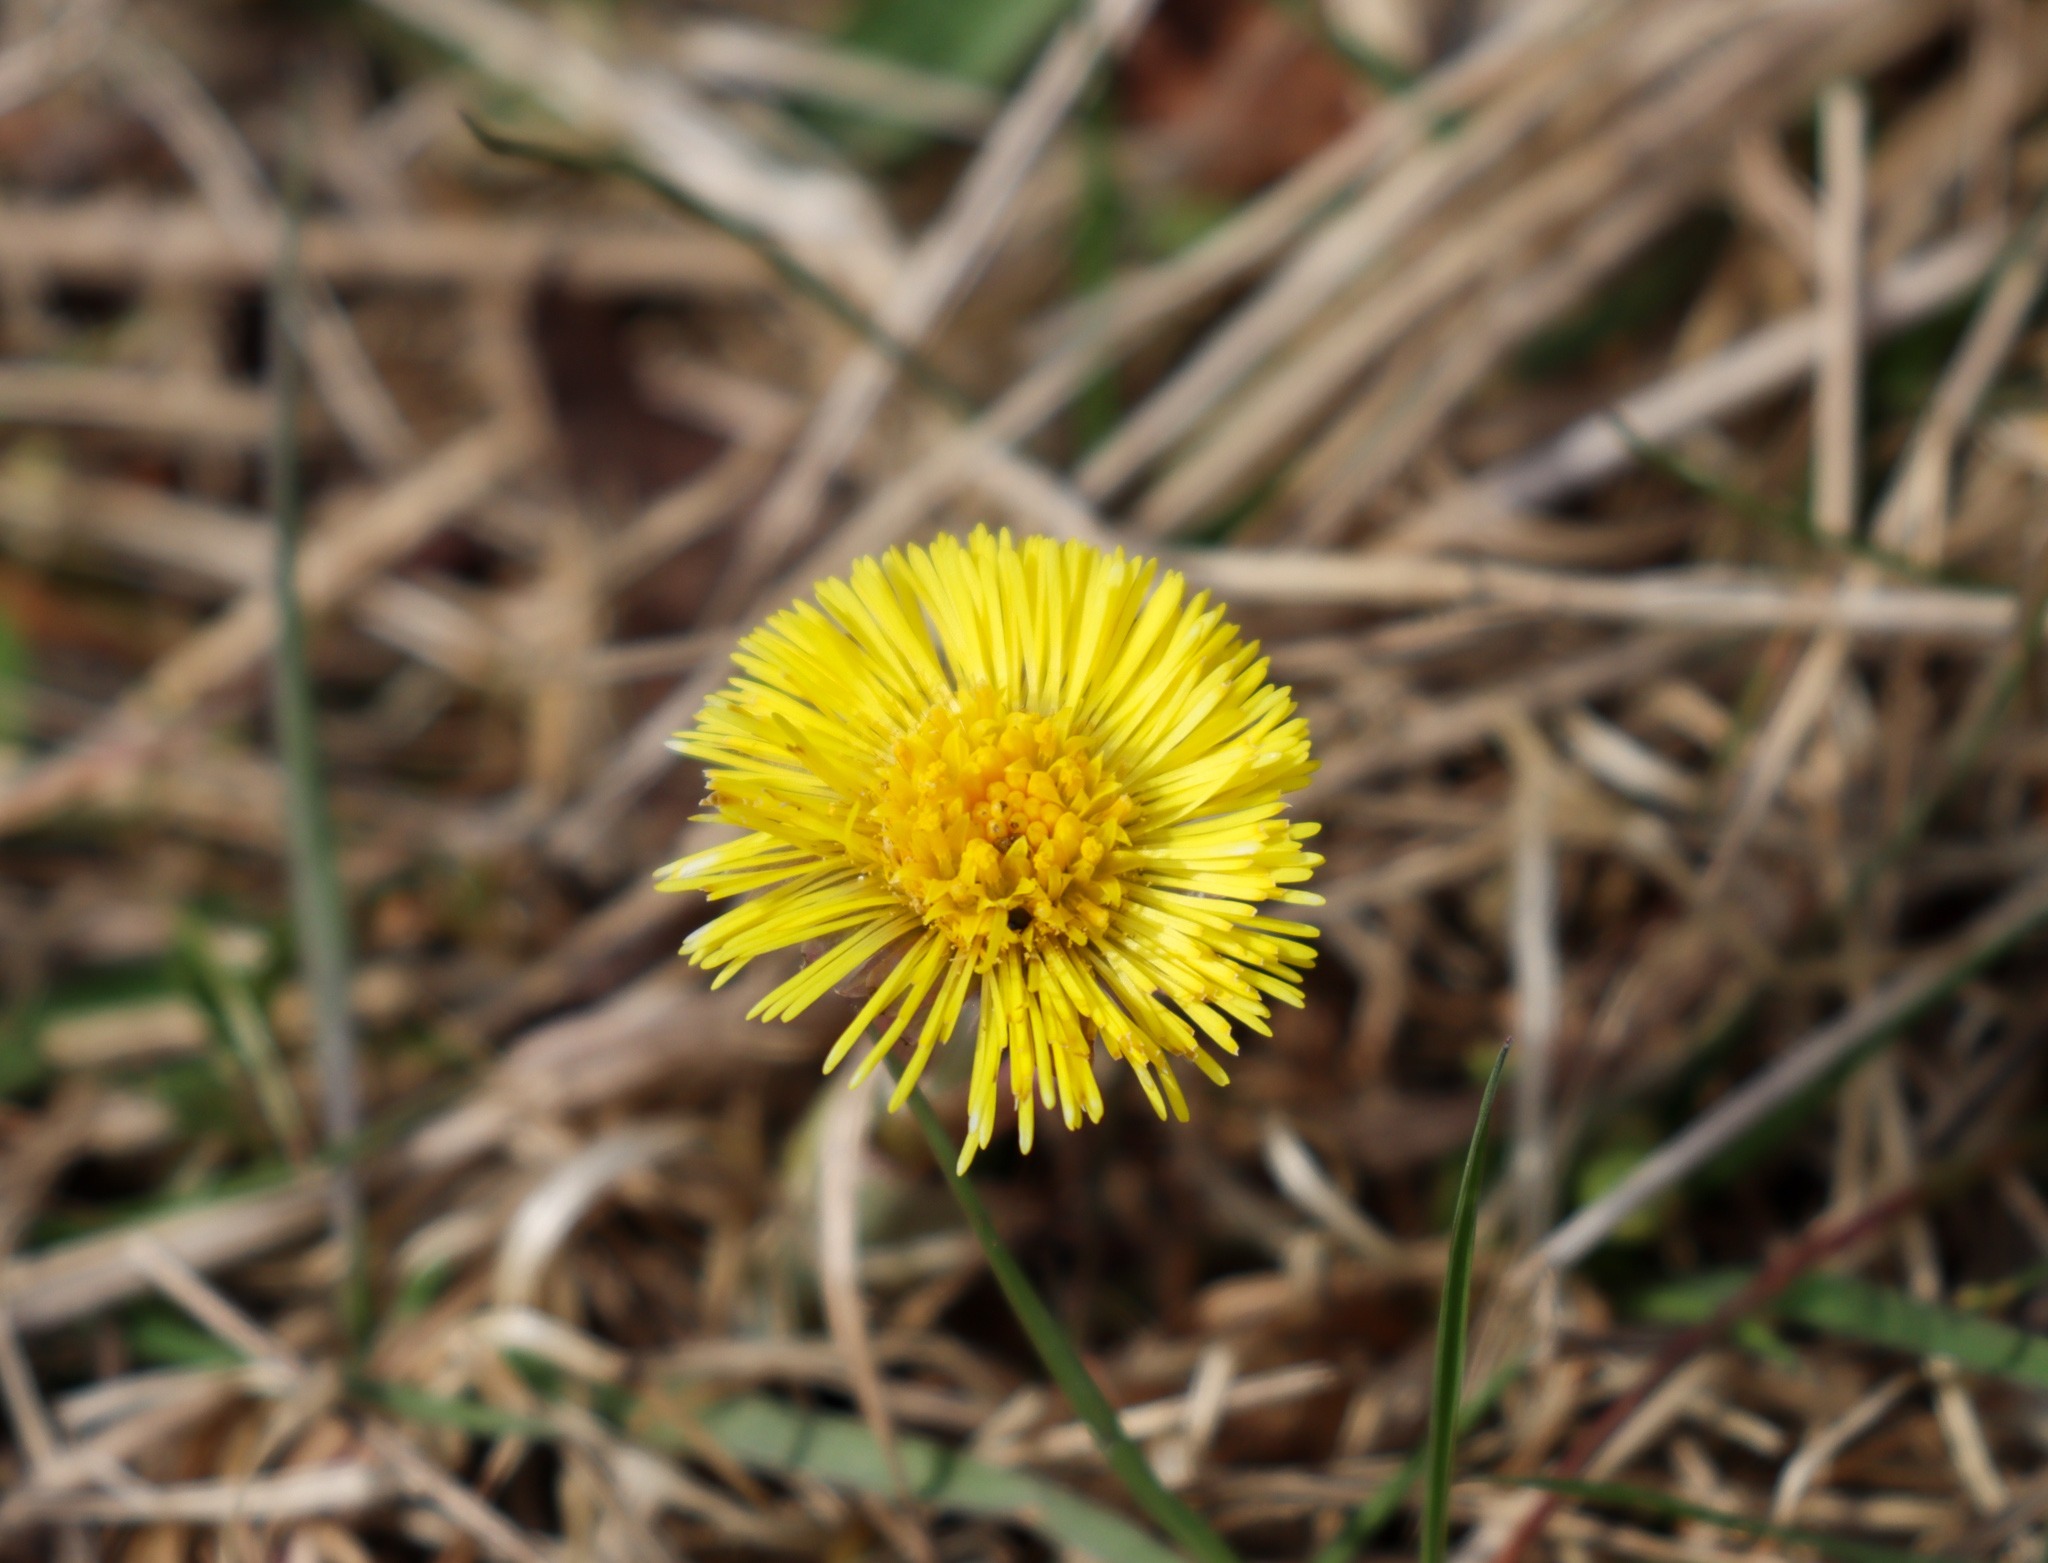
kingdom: Plantae
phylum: Tracheophyta
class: Magnoliopsida
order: Asterales
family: Asteraceae
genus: Tussilago
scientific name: Tussilago farfara
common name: Følfod
